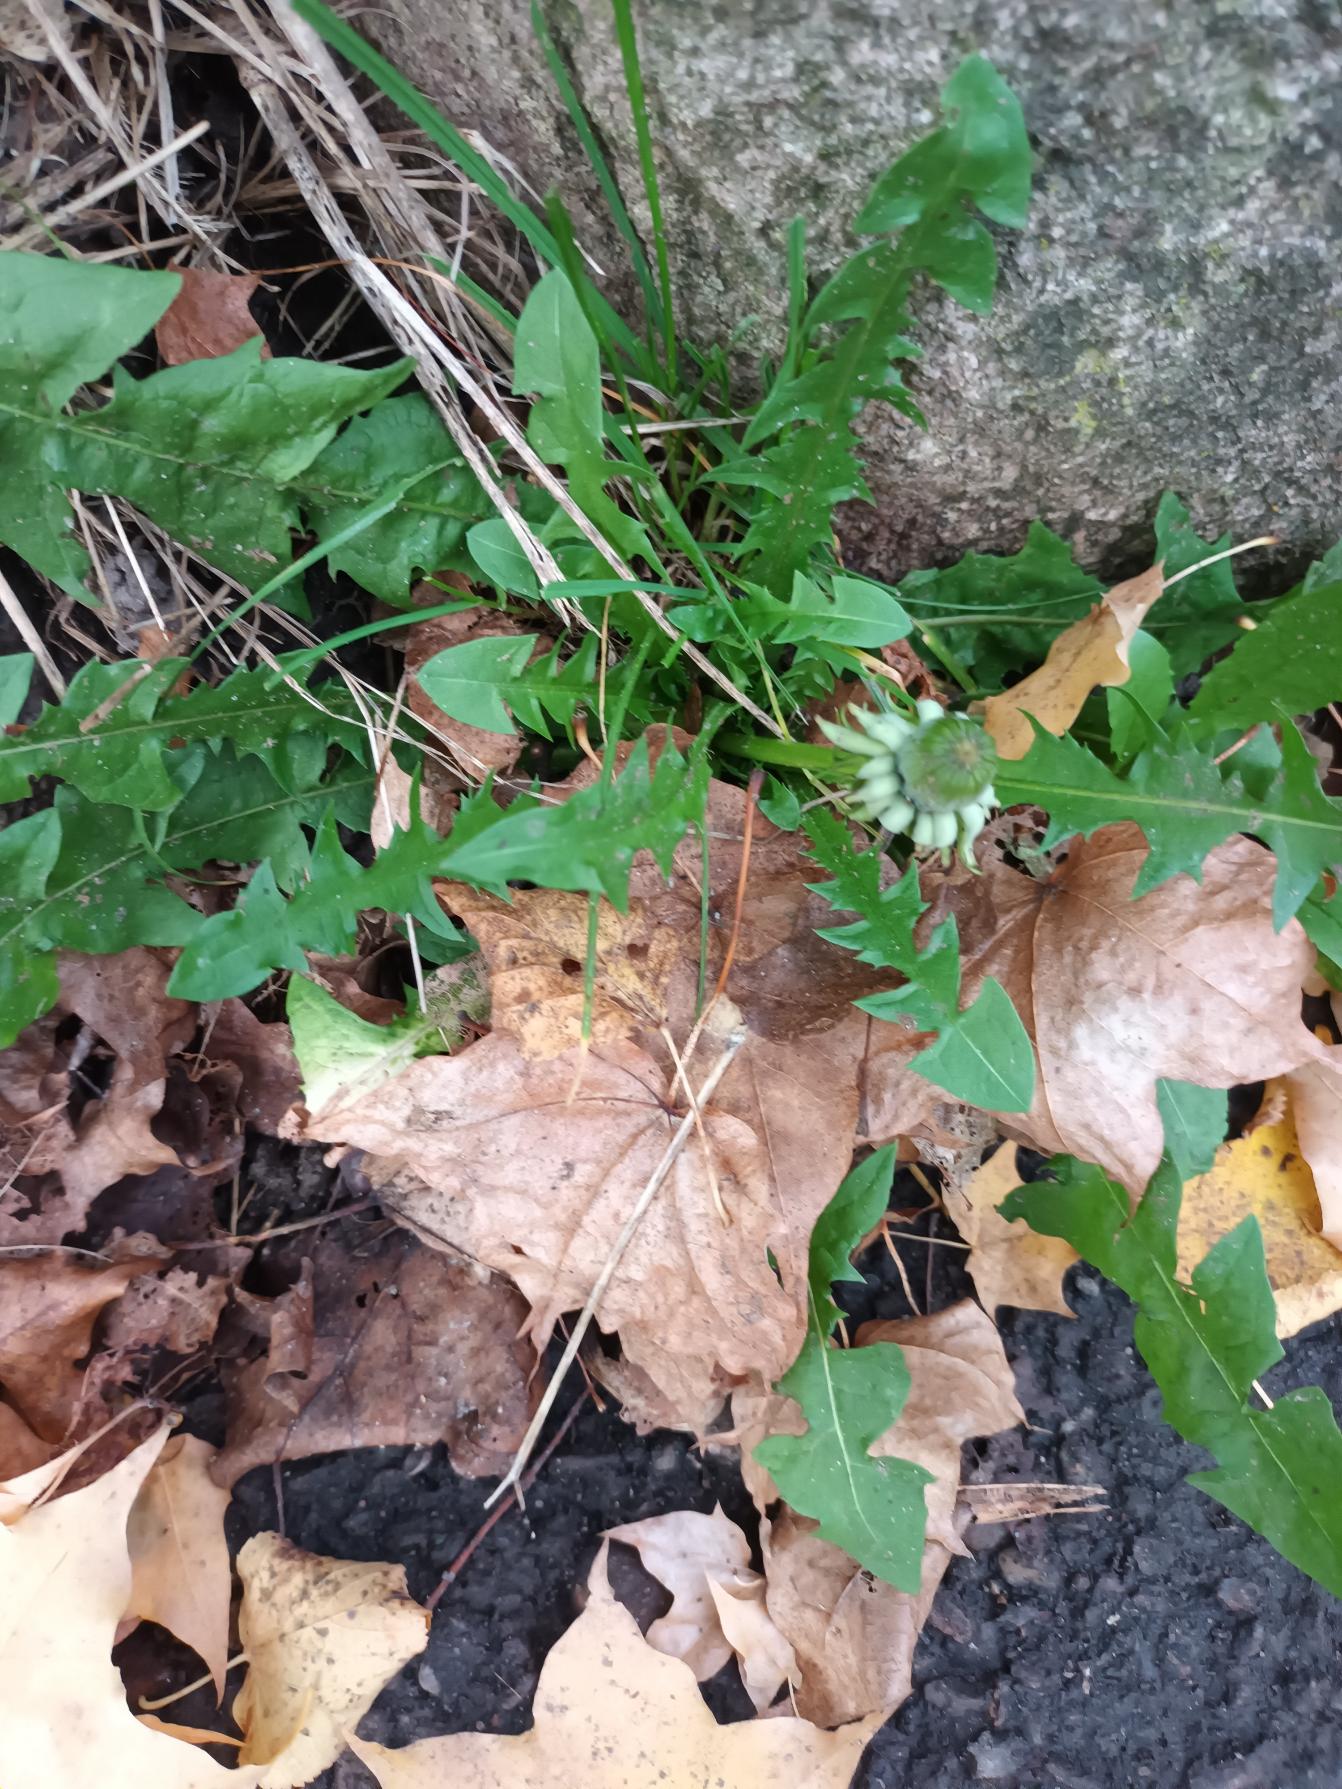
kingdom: Plantae
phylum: Tracheophyta
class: Magnoliopsida
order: Asterales
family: Asteraceae
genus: Taraxacum
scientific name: Taraxacum
